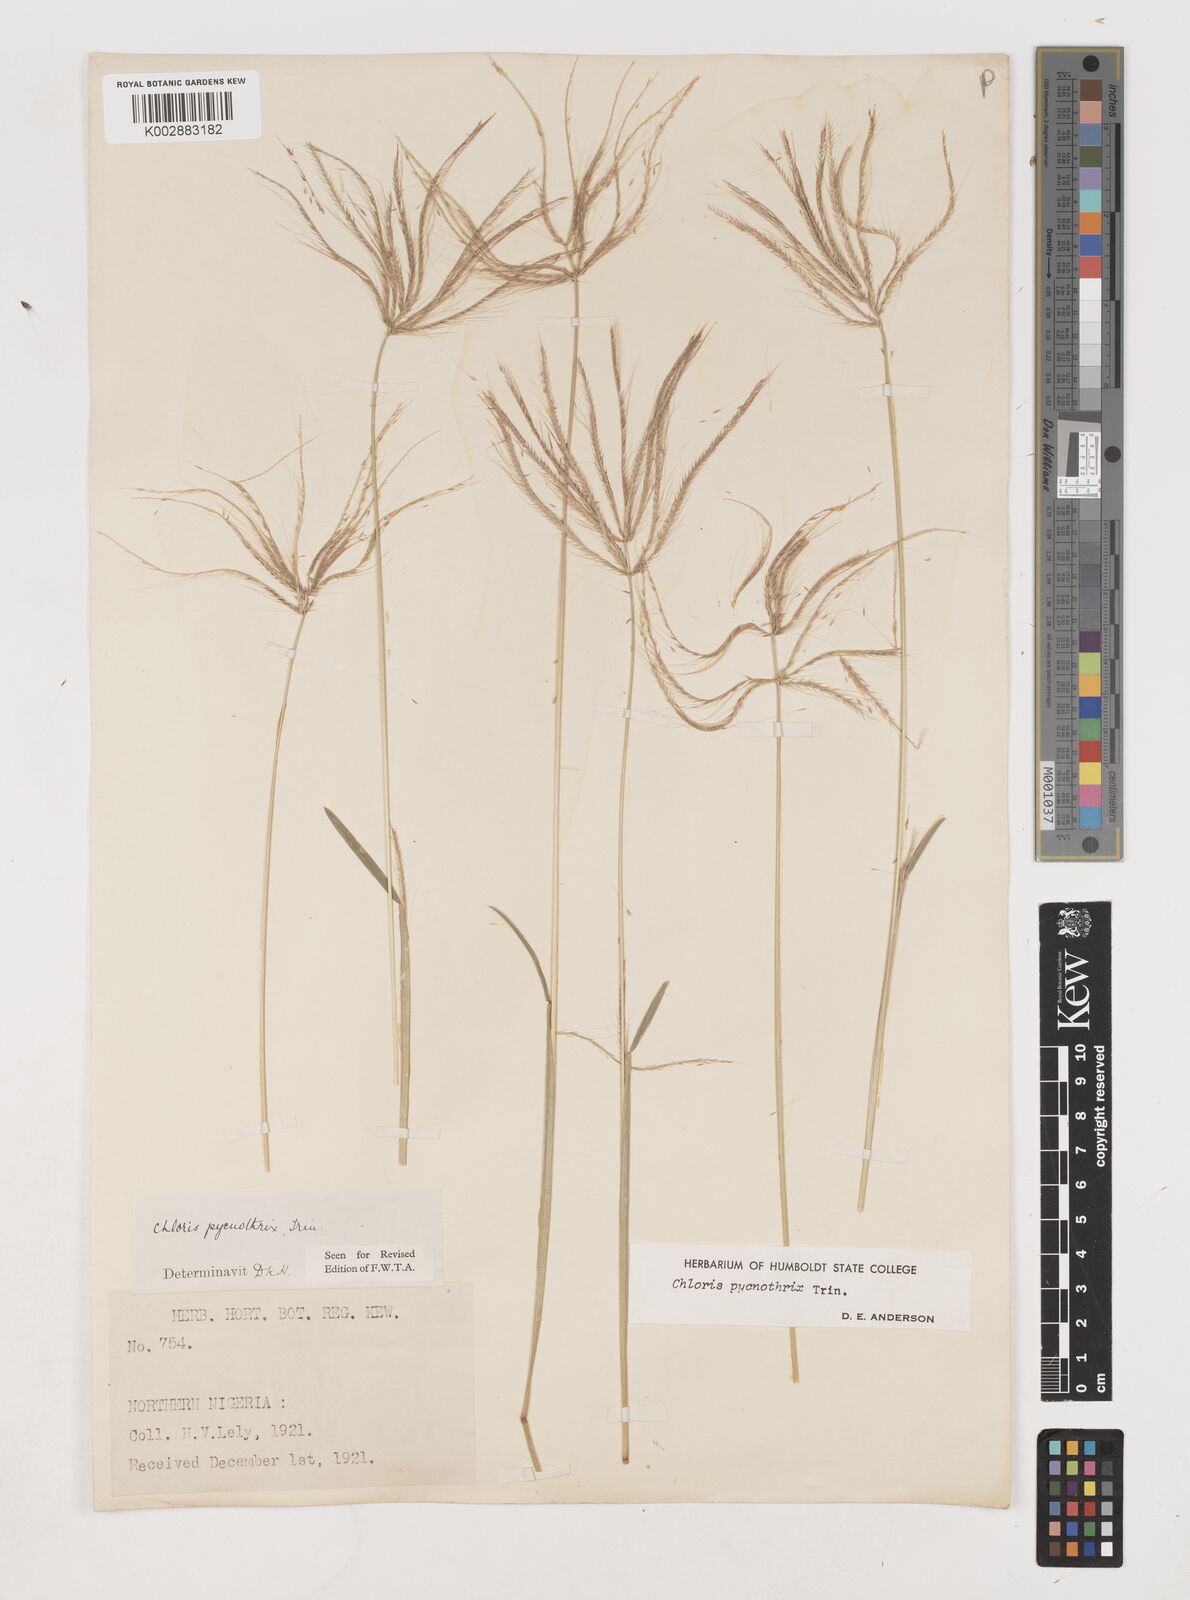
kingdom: Plantae
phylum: Tracheophyta
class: Liliopsida
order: Poales
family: Poaceae
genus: Chloris
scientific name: Chloris pycnothrix
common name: Spiderweb chloris
